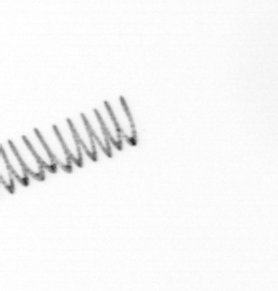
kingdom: Chromista
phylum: Ochrophyta
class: Bacillariophyceae
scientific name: Bacillariophyceae
